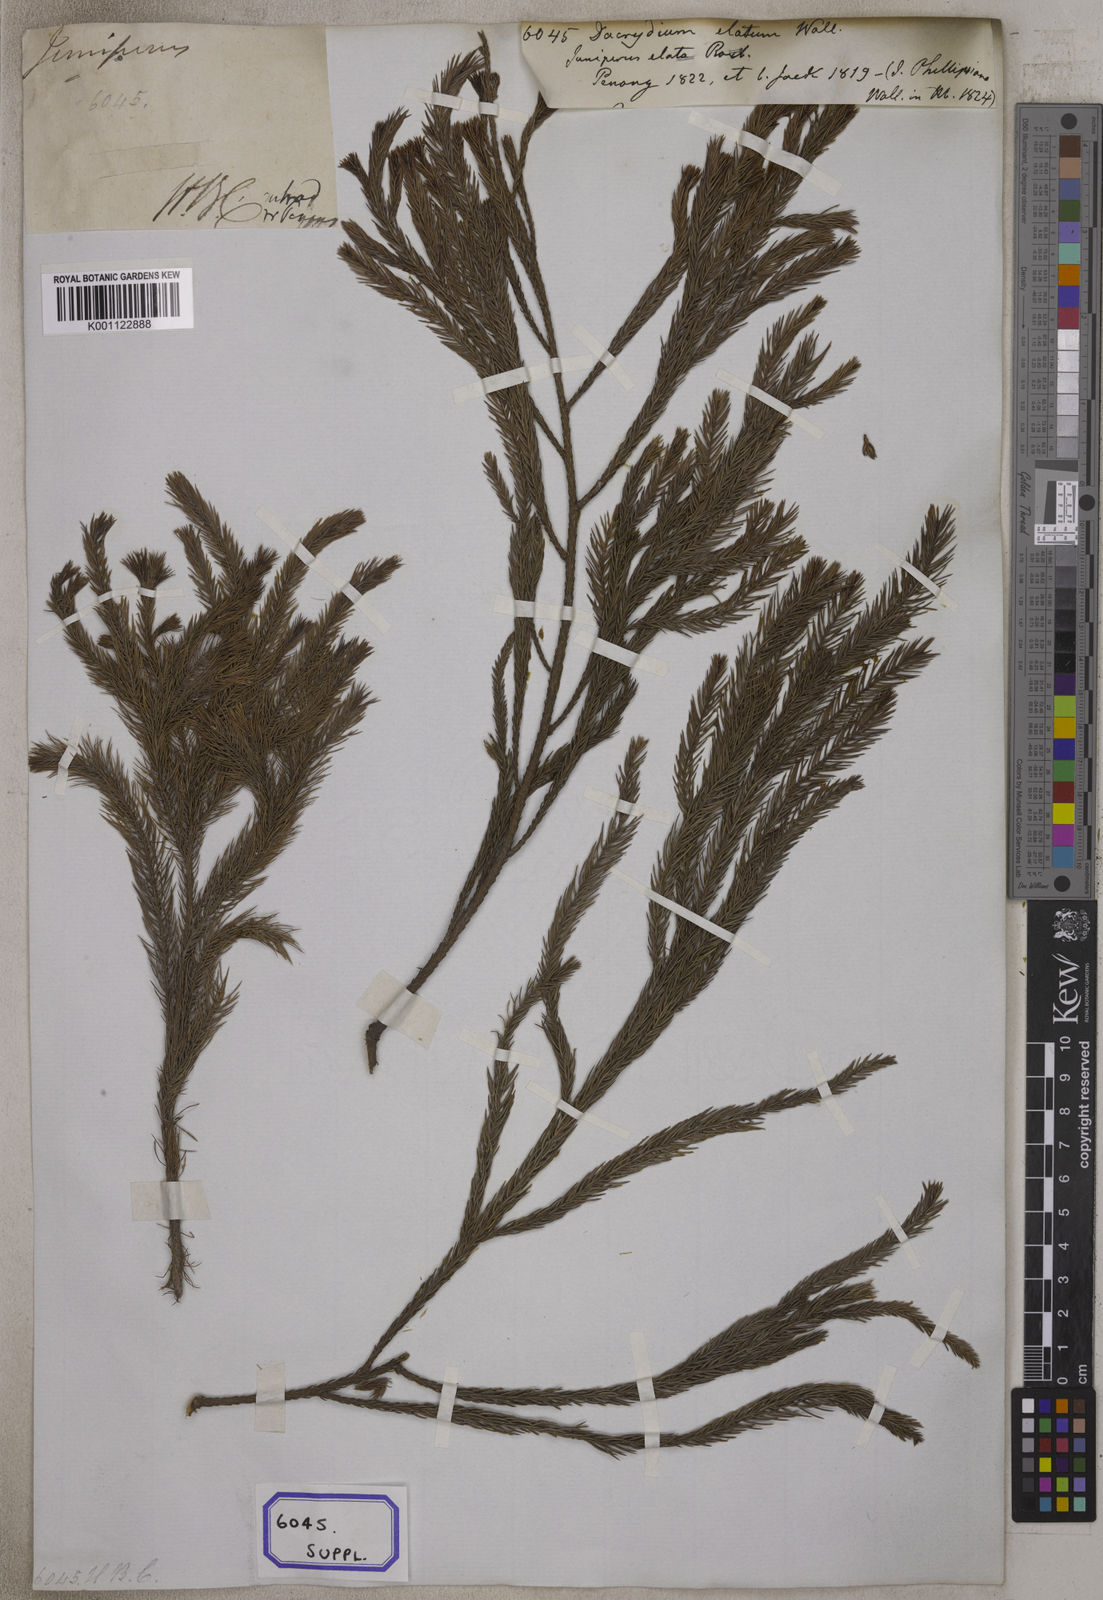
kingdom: Plantae
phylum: Tracheophyta
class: Pinopsida
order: Pinales
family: Podocarpaceae
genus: Dacrydium
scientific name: Dacrydium
